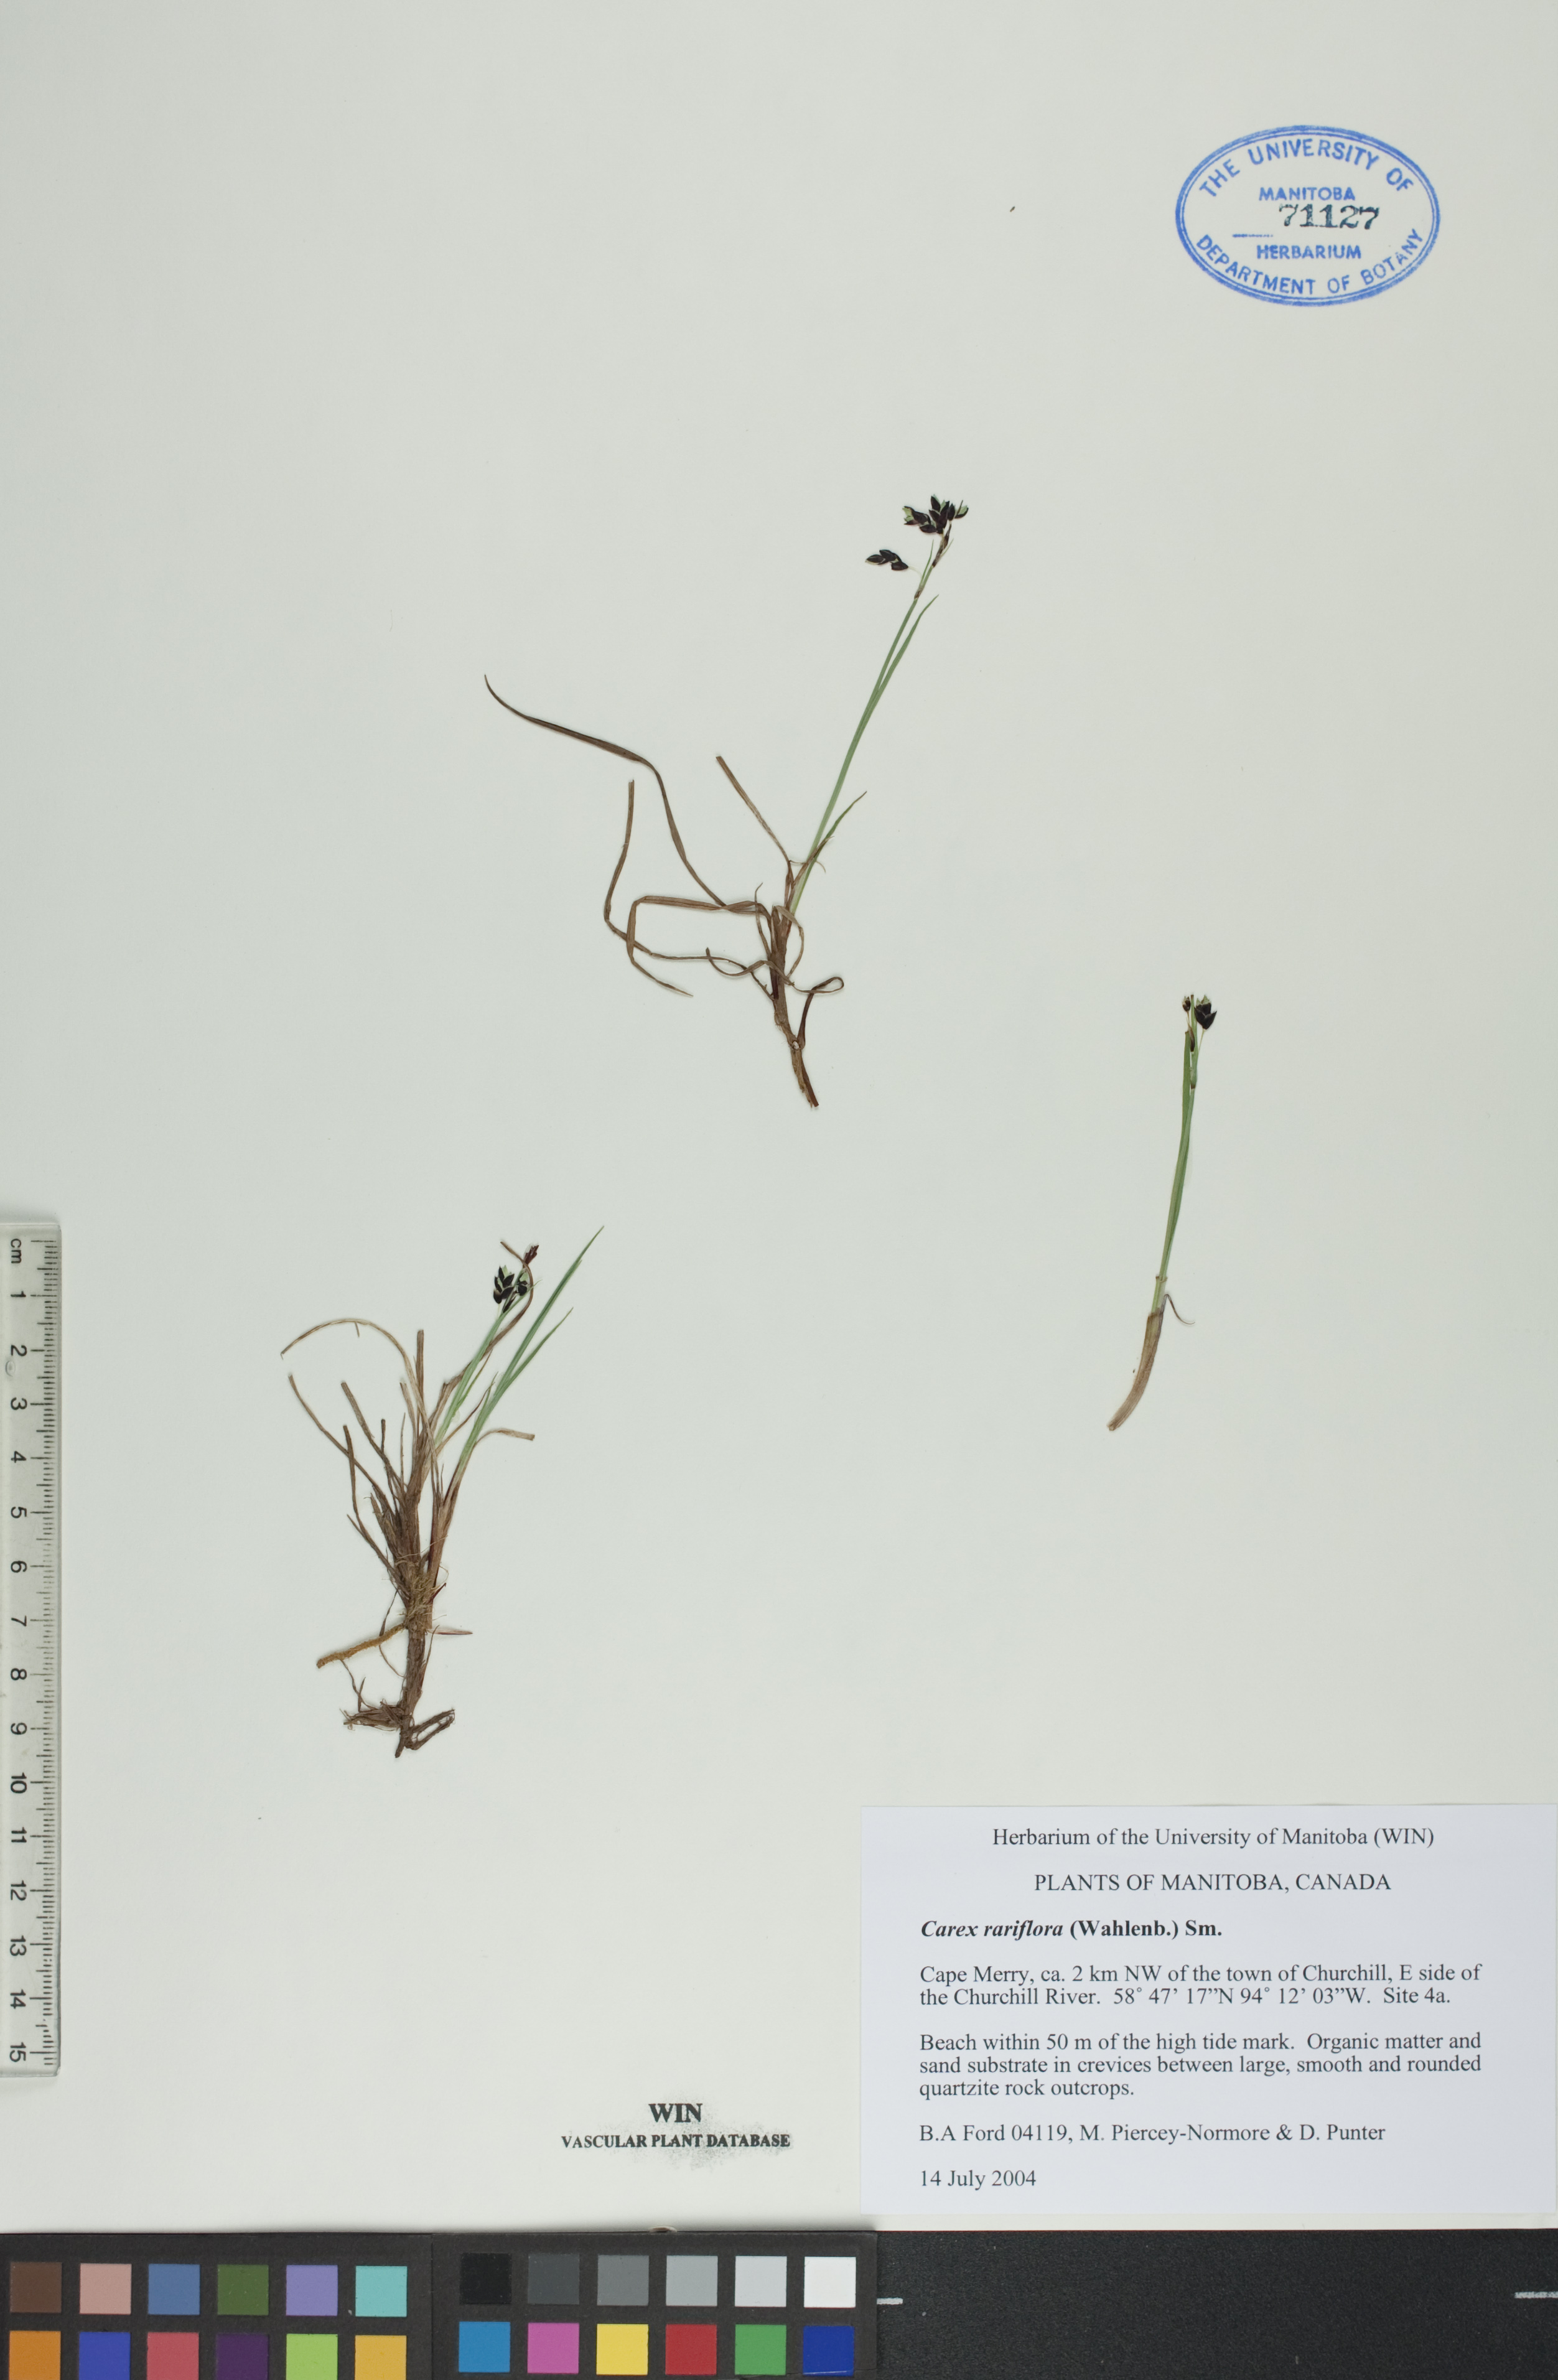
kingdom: Plantae
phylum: Tracheophyta
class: Liliopsida
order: Poales
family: Cyperaceae
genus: Carex
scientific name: Carex rariflora
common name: Loose-flowered alpine sedge
